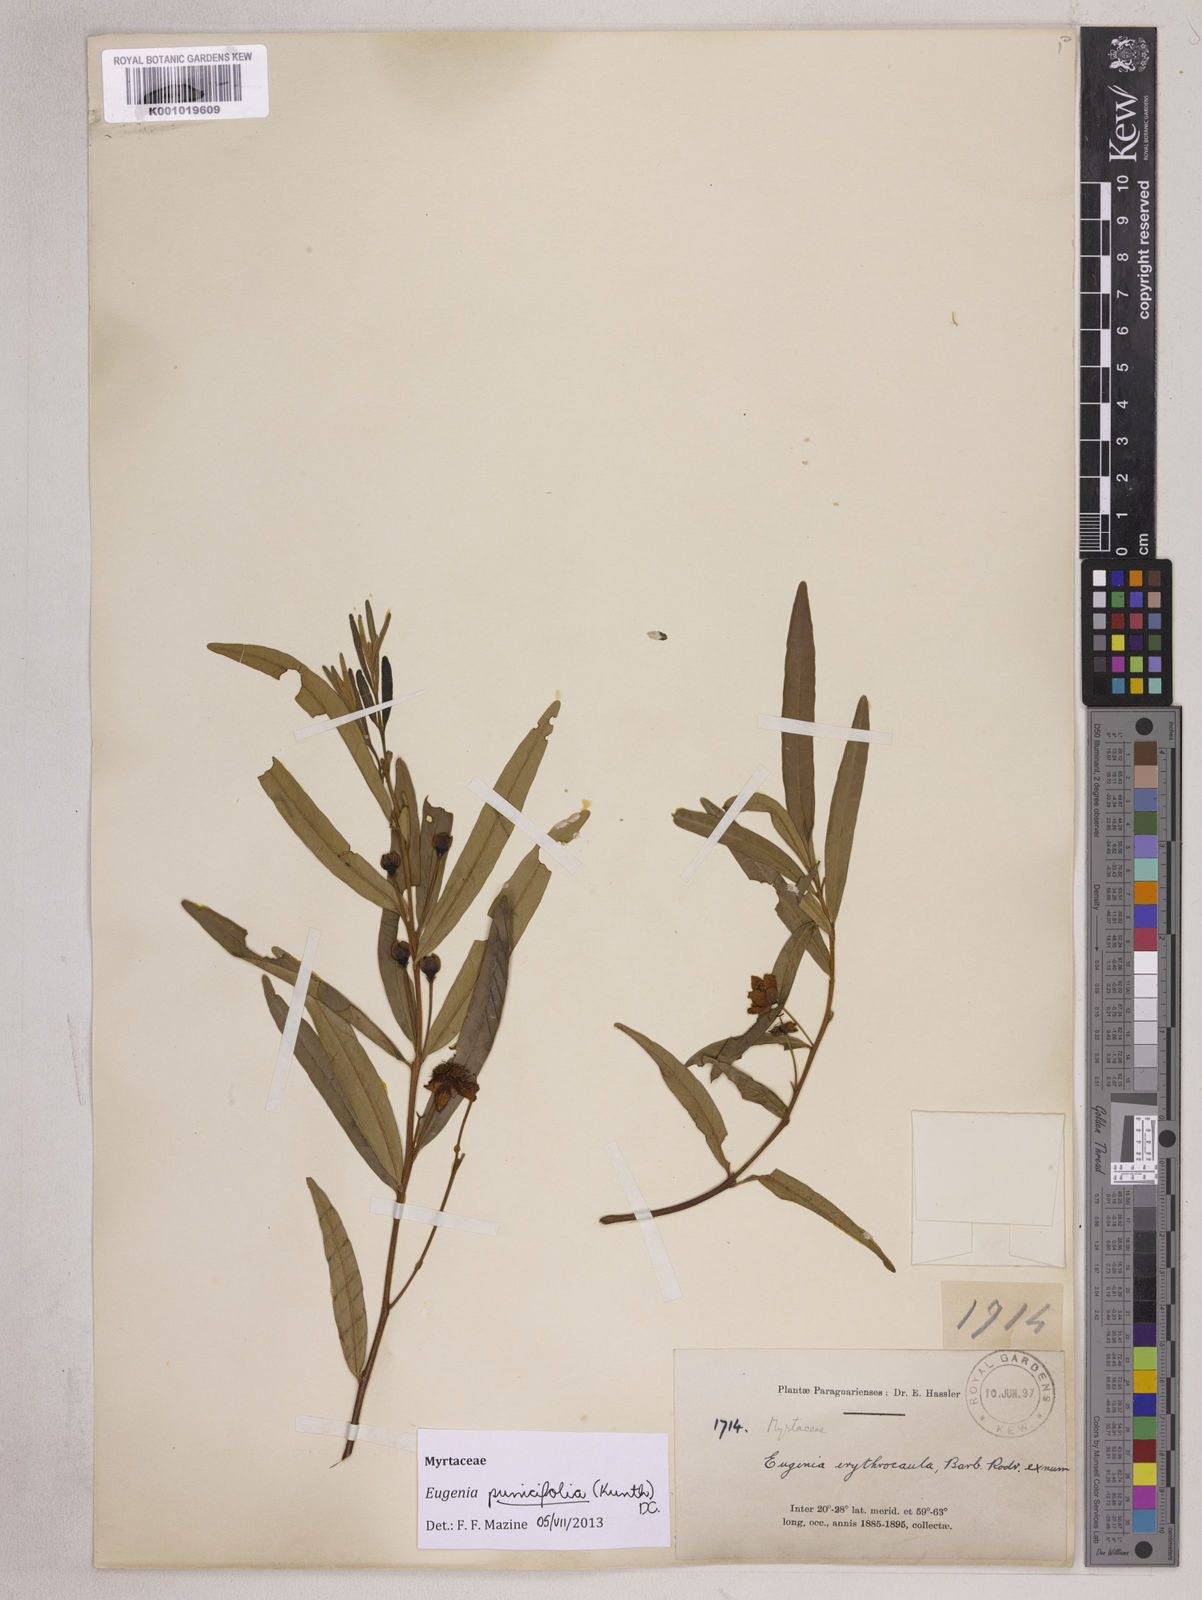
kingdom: Plantae
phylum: Tracheophyta
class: Magnoliopsida
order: Myrtales
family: Myrtaceae
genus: Eugenia
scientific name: Eugenia punicifolia
